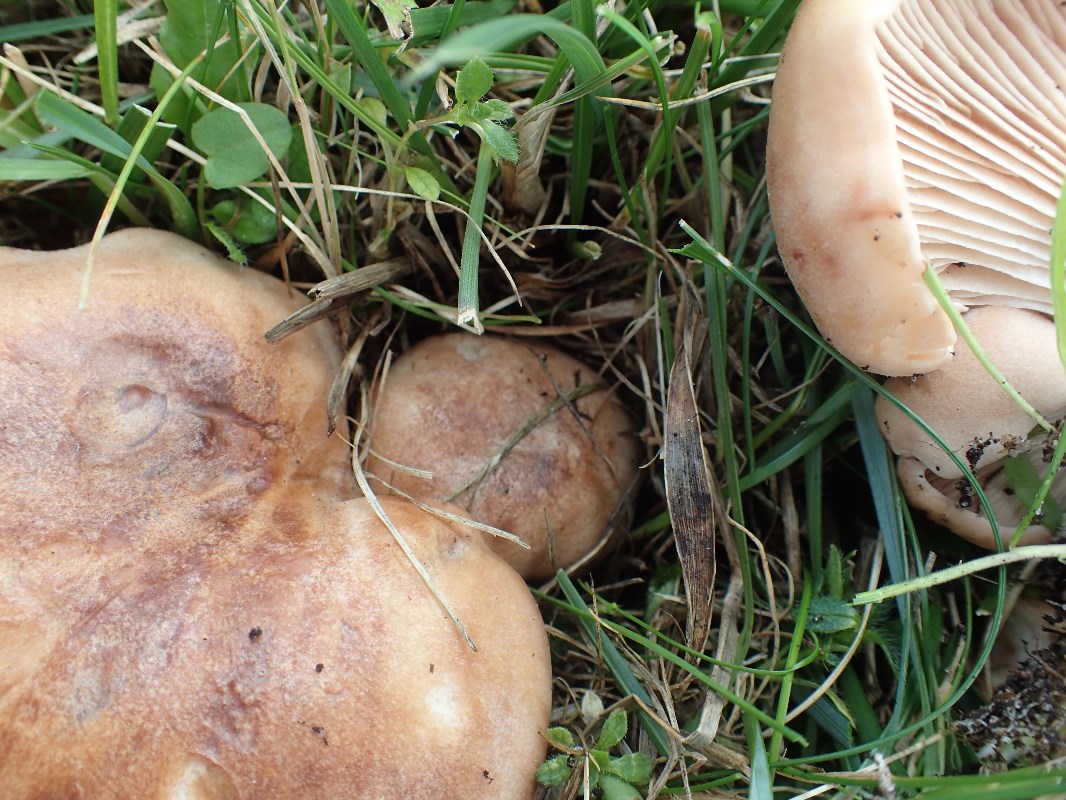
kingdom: Fungi
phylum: Basidiomycota
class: Agaricomycetes
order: Agaricales
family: Entolomataceae
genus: Clitopilus
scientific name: Clitopilus geminus
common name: kødfarvet troldhat
